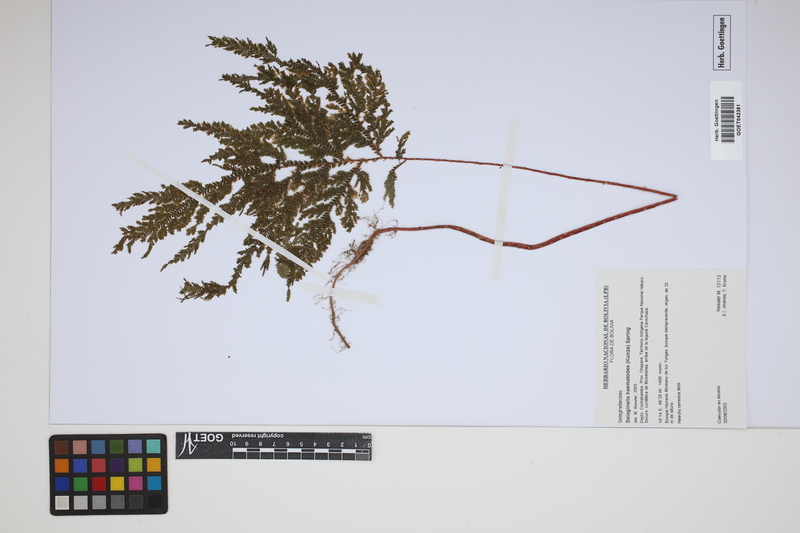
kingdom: Plantae
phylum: Tracheophyta
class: Lycopodiopsida
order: Selaginellales
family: Selaginellaceae
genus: Selaginella
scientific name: Selaginella haematodes
